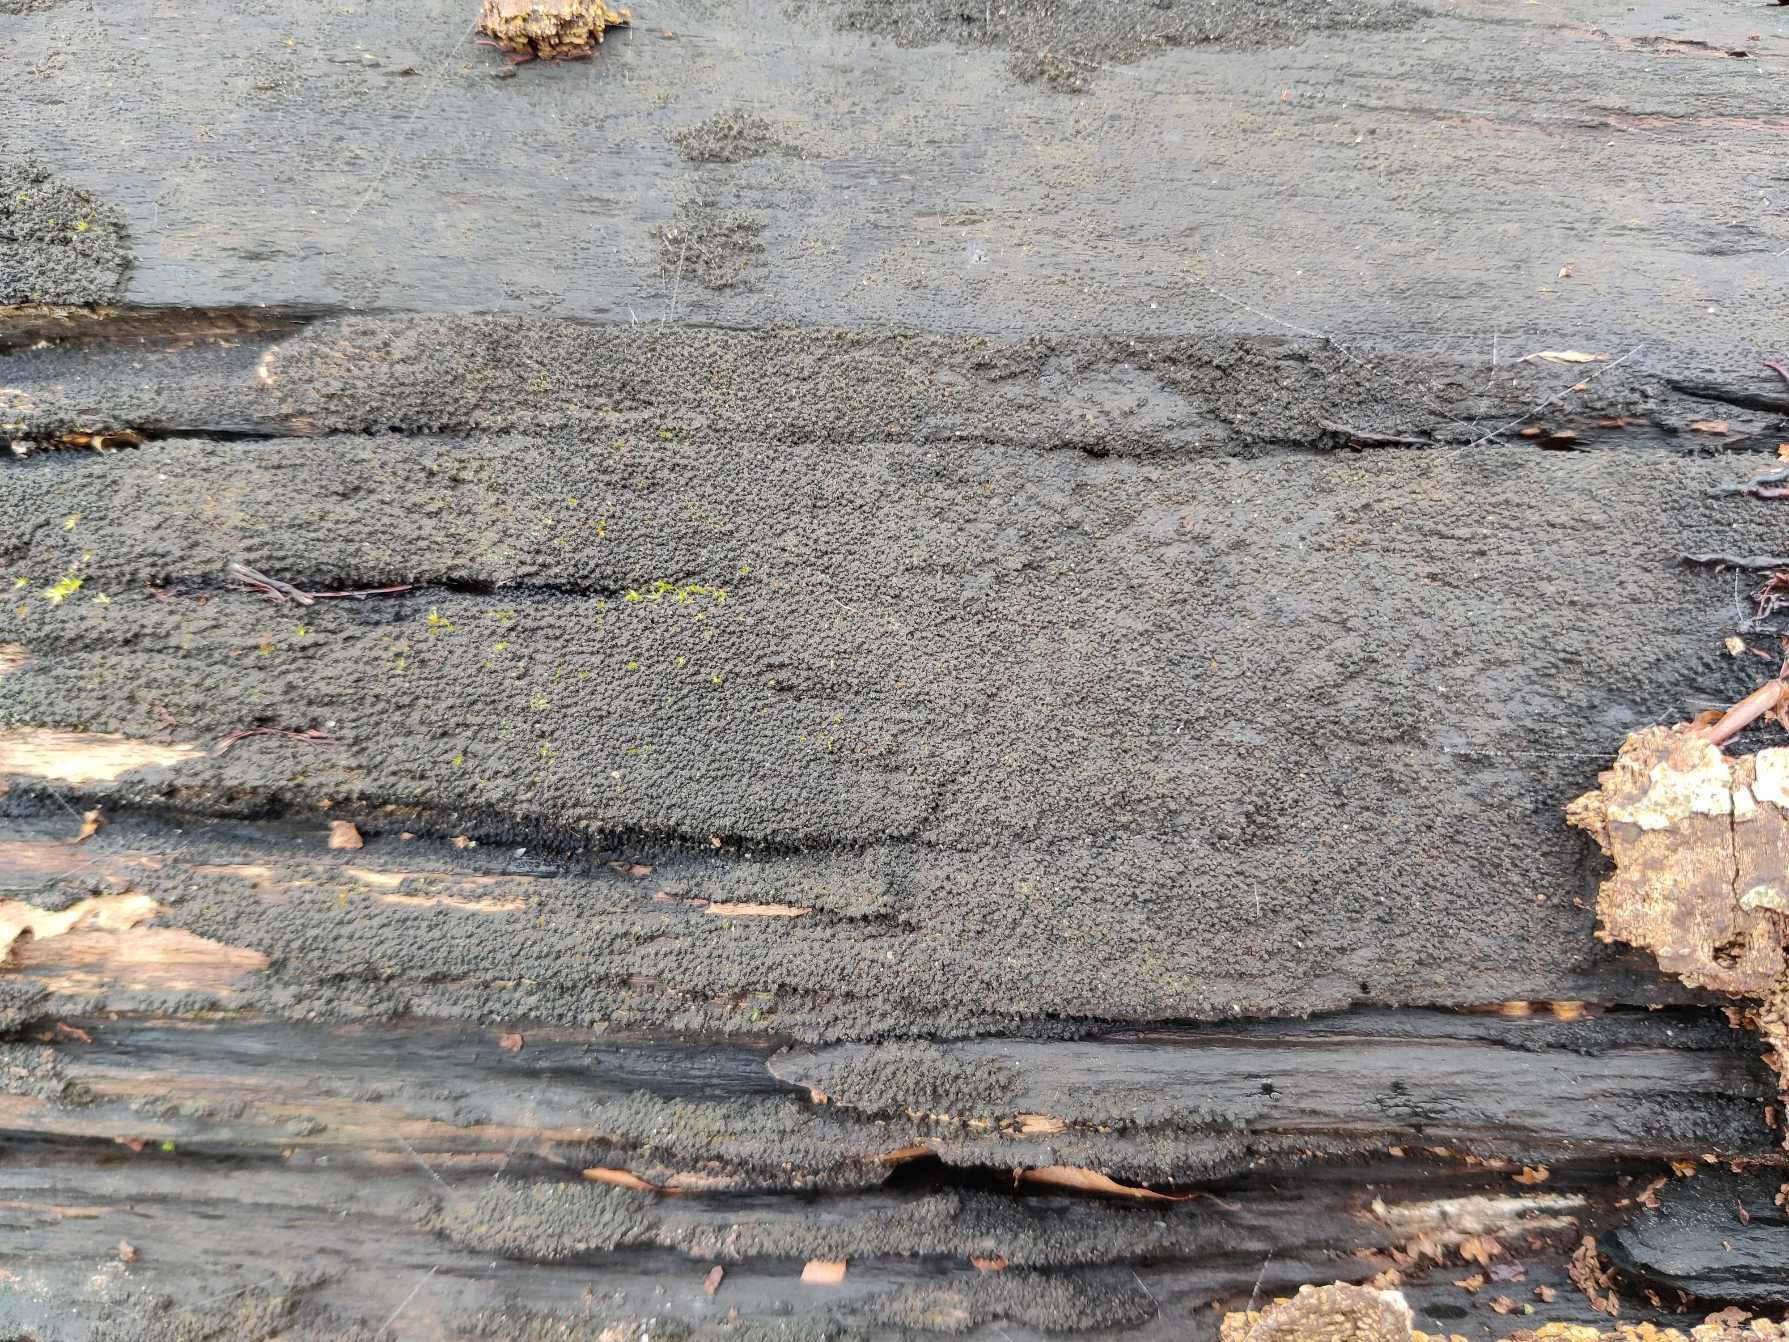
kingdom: Fungi
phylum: Ascomycota
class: Sordariomycetes
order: Xylariales
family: Diatrypaceae
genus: Eutypa
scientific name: Eutypa spinosa
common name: Grov kulskorpe
